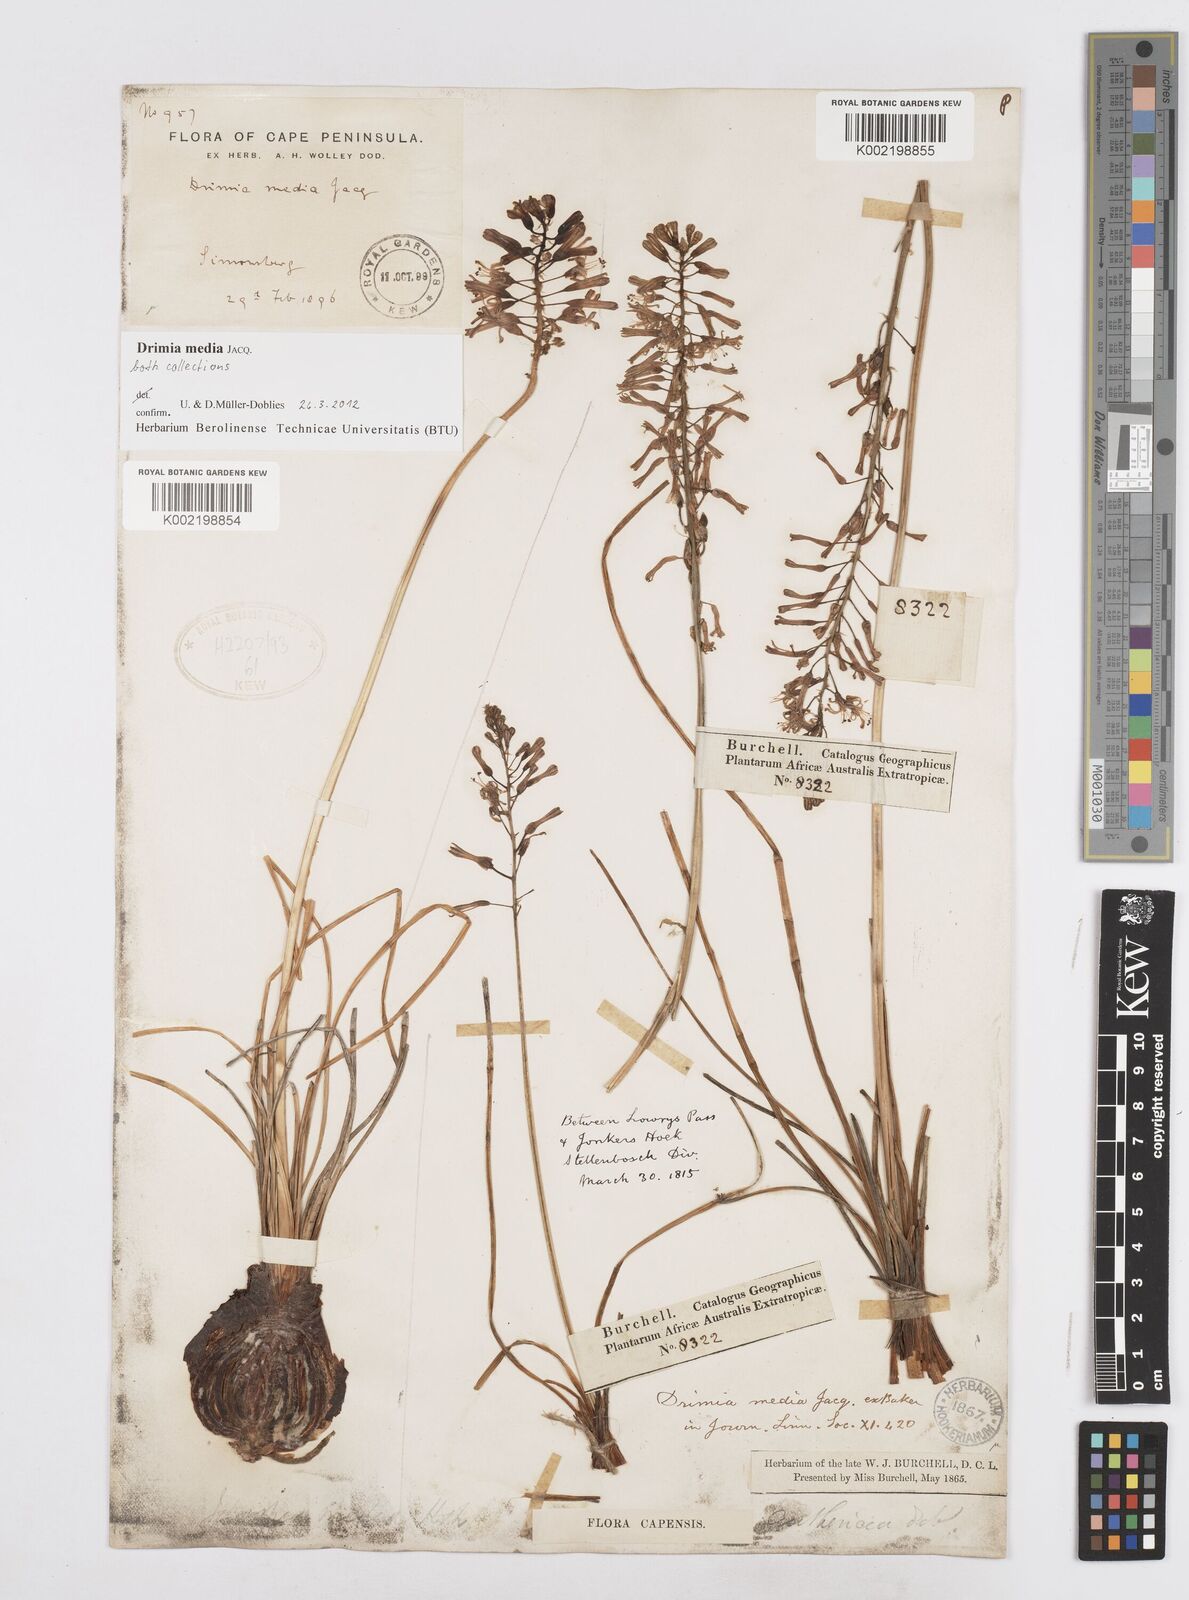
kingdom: Plantae
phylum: Tracheophyta
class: Liliopsida
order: Asparagales
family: Asparagaceae
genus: Drimia
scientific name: Drimia media
